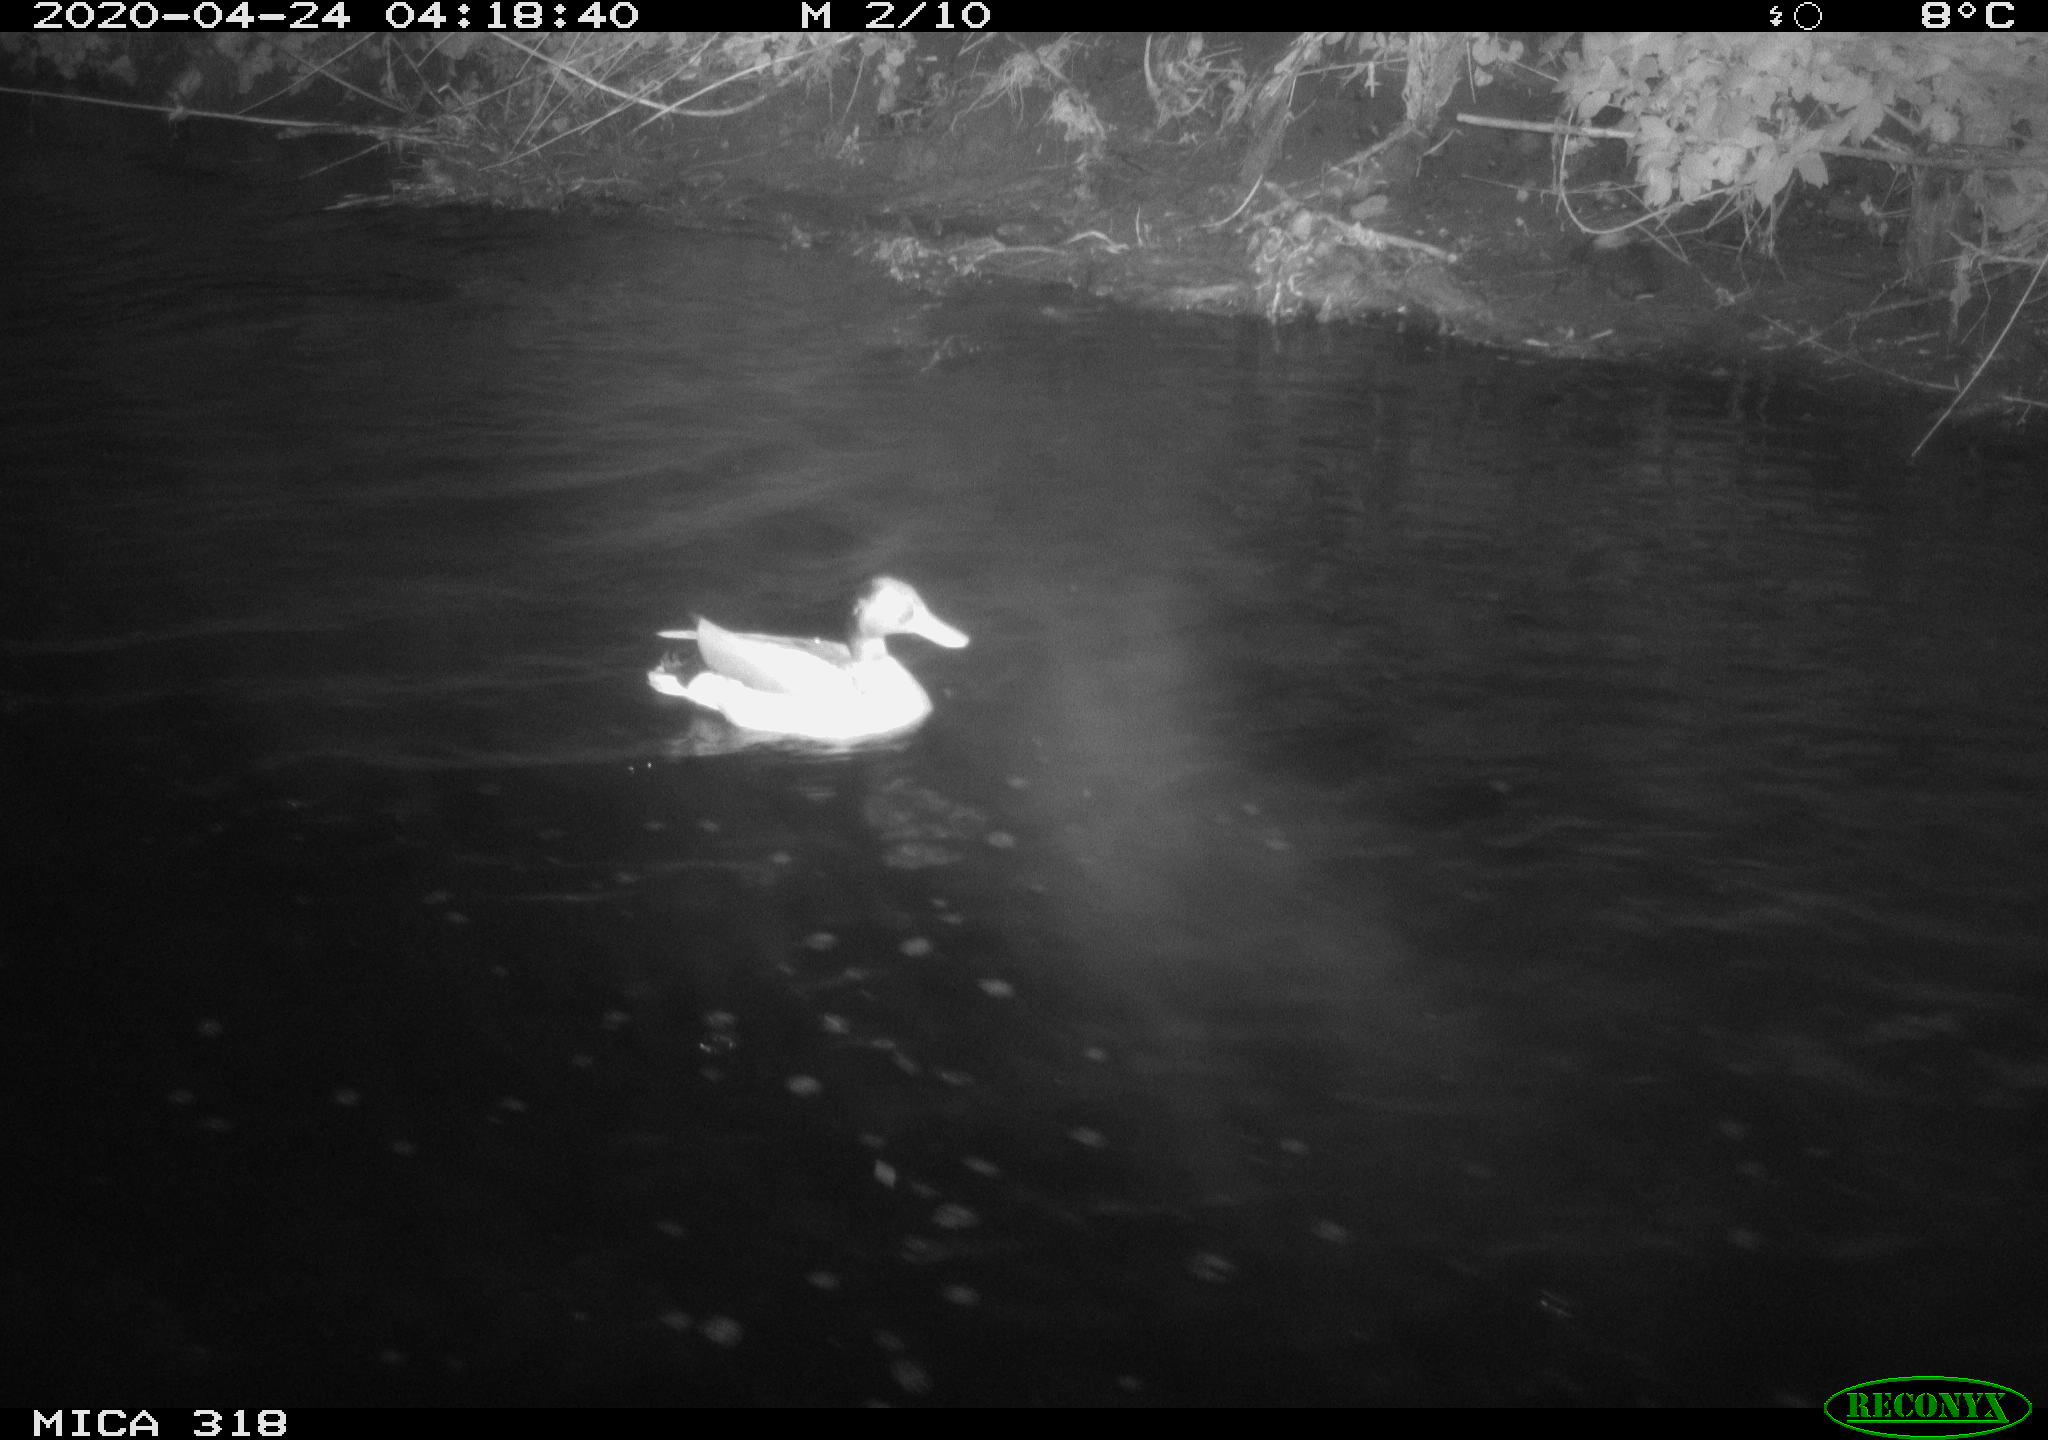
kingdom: Animalia
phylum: Chordata
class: Aves
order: Anseriformes
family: Anatidae
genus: Anas
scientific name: Anas platyrhynchos
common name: Mallard
